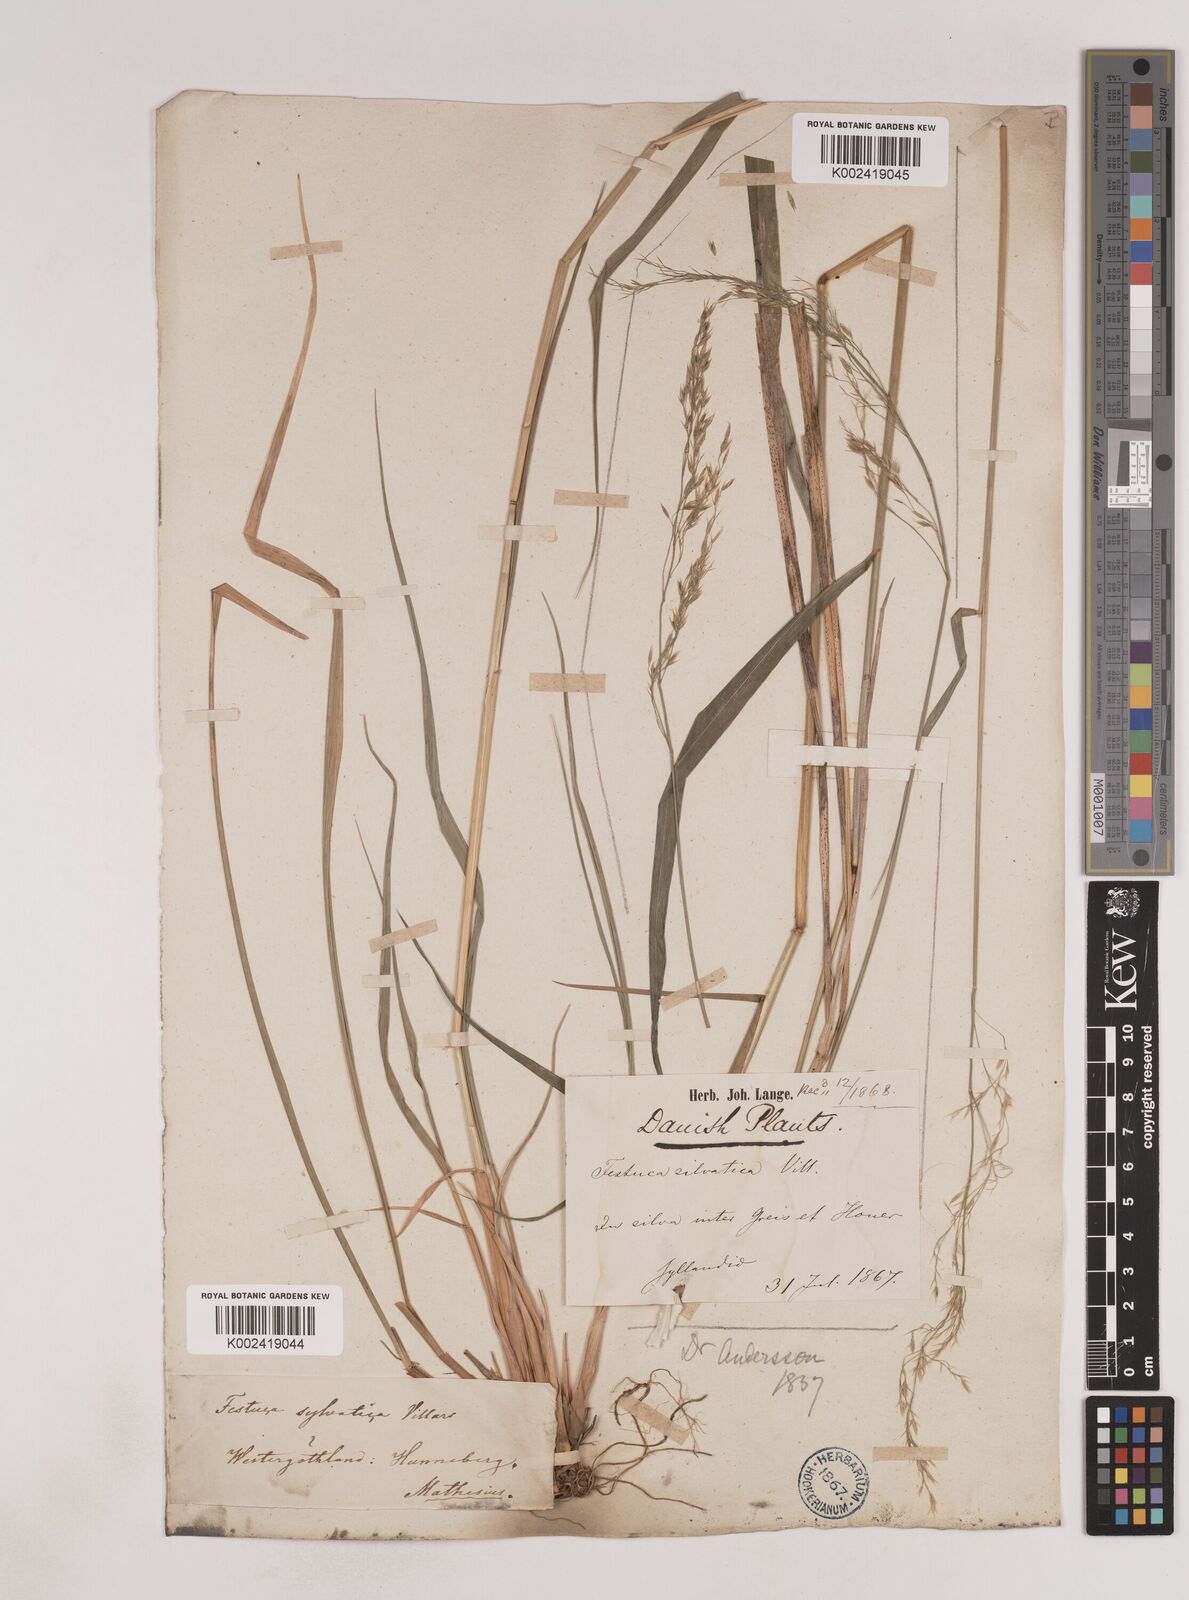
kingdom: Plantae
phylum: Tracheophyta
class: Liliopsida
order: Poales
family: Poaceae
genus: Festuca
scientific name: Festuca drymeja
